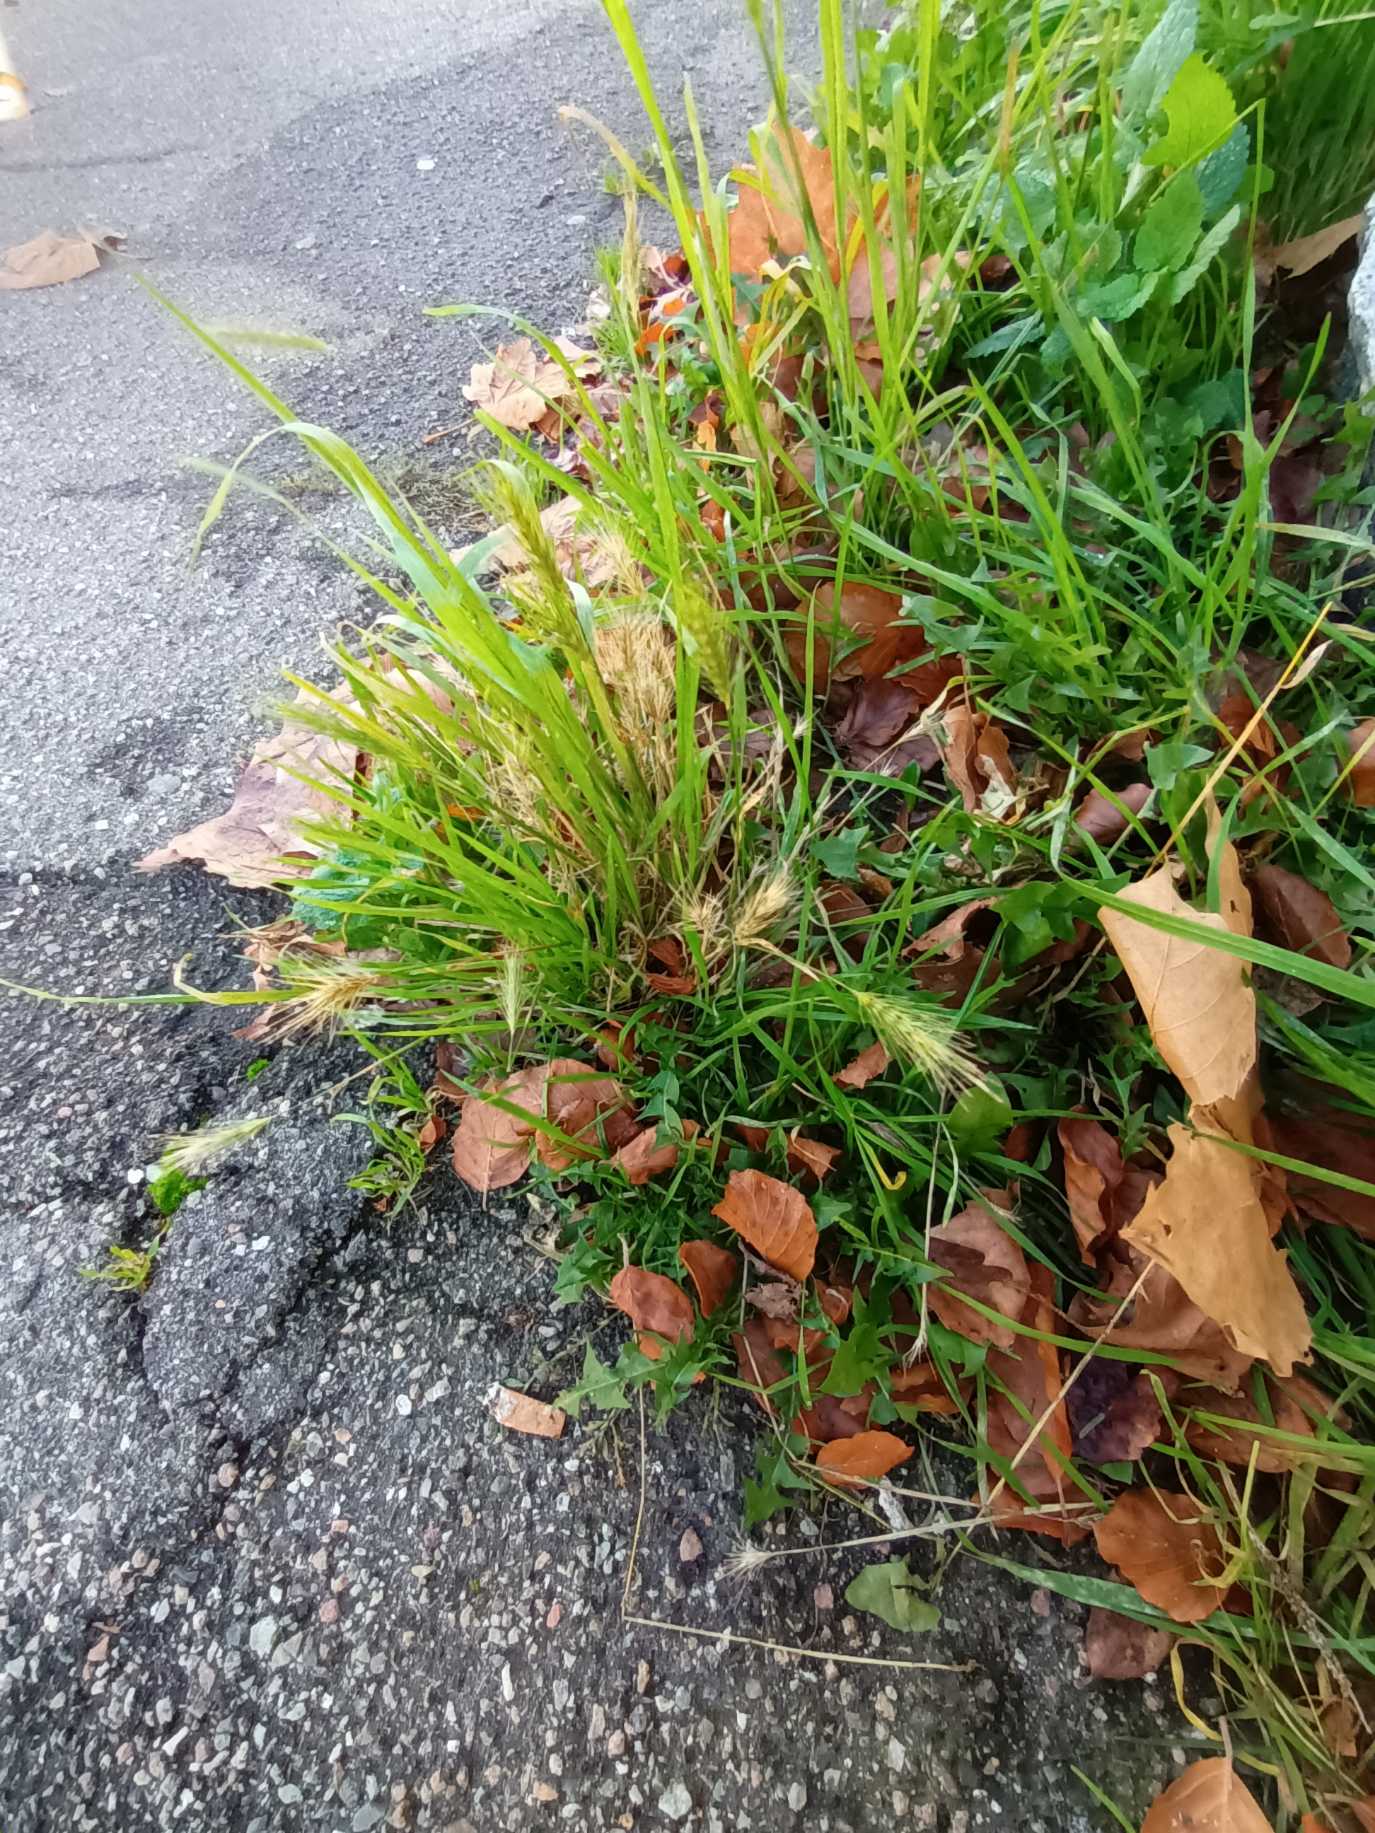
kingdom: Plantae
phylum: Tracheophyta
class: Liliopsida
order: Poales
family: Poaceae
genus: Hordeum
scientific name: Hordeum murinum
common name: Gold byg
